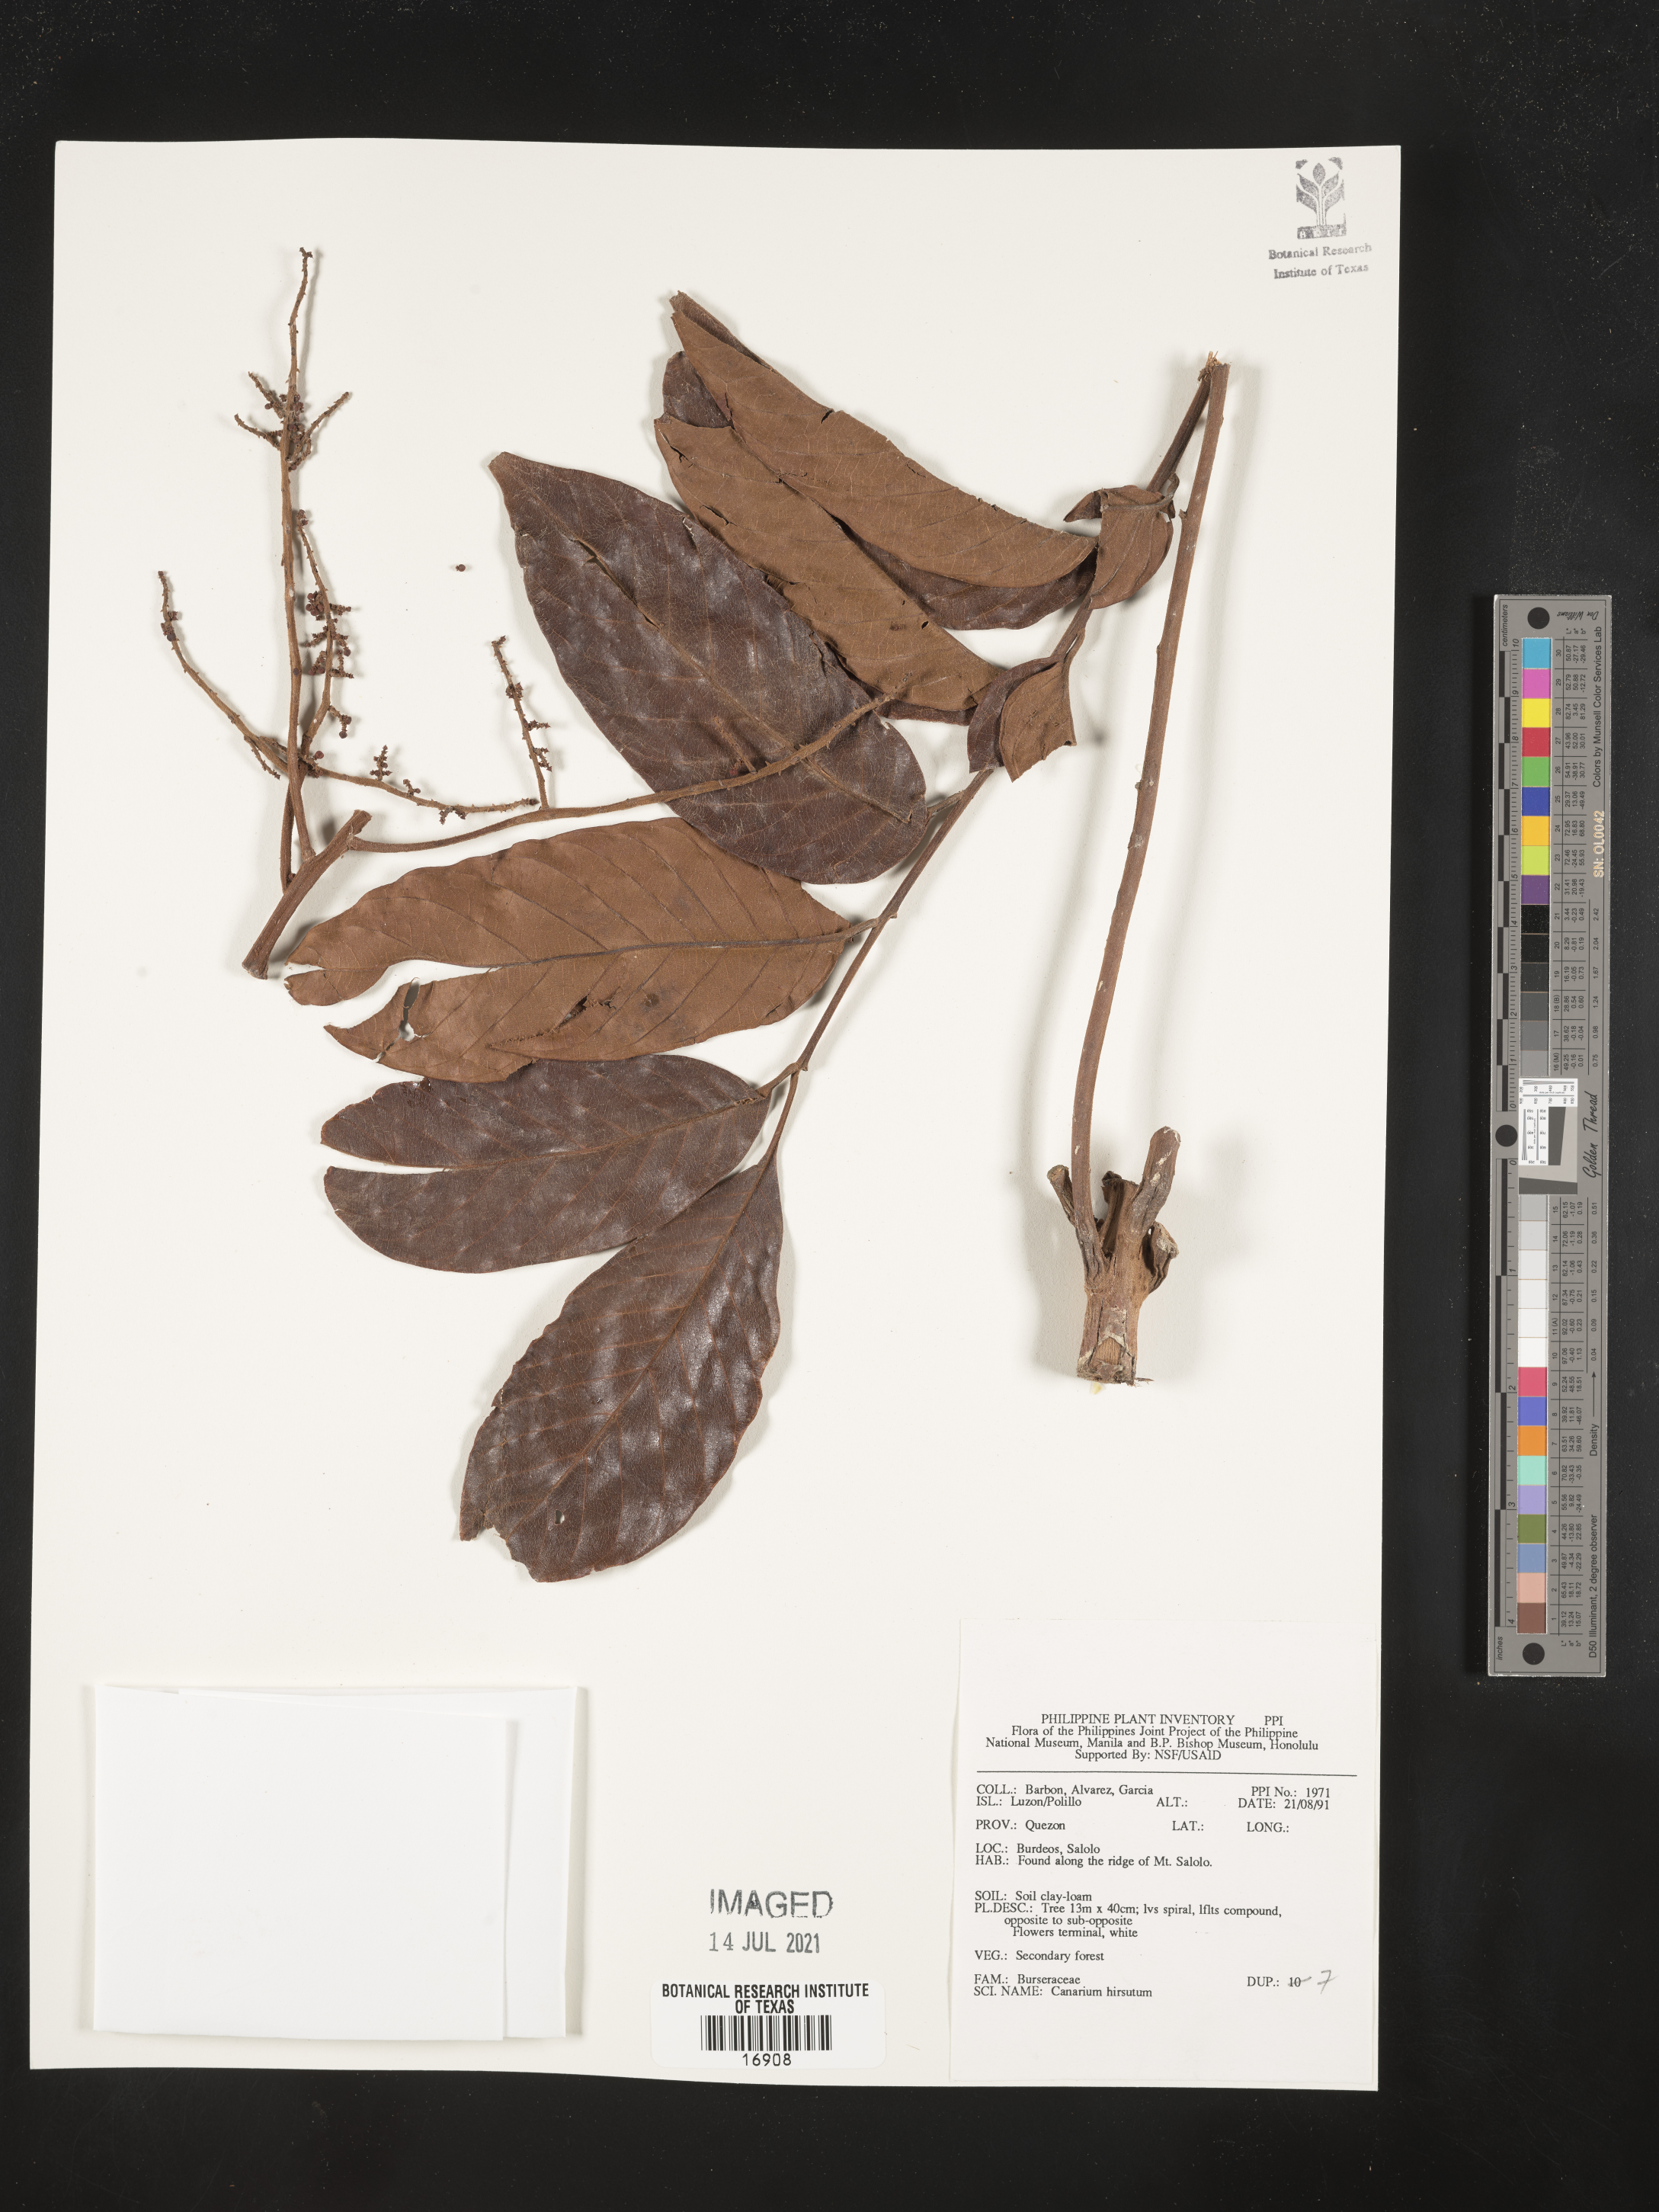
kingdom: Plantae
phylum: Tracheophyta
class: Magnoliopsida
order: Sapindales
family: Burseraceae
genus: Canarium
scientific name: Canarium hirsutum
